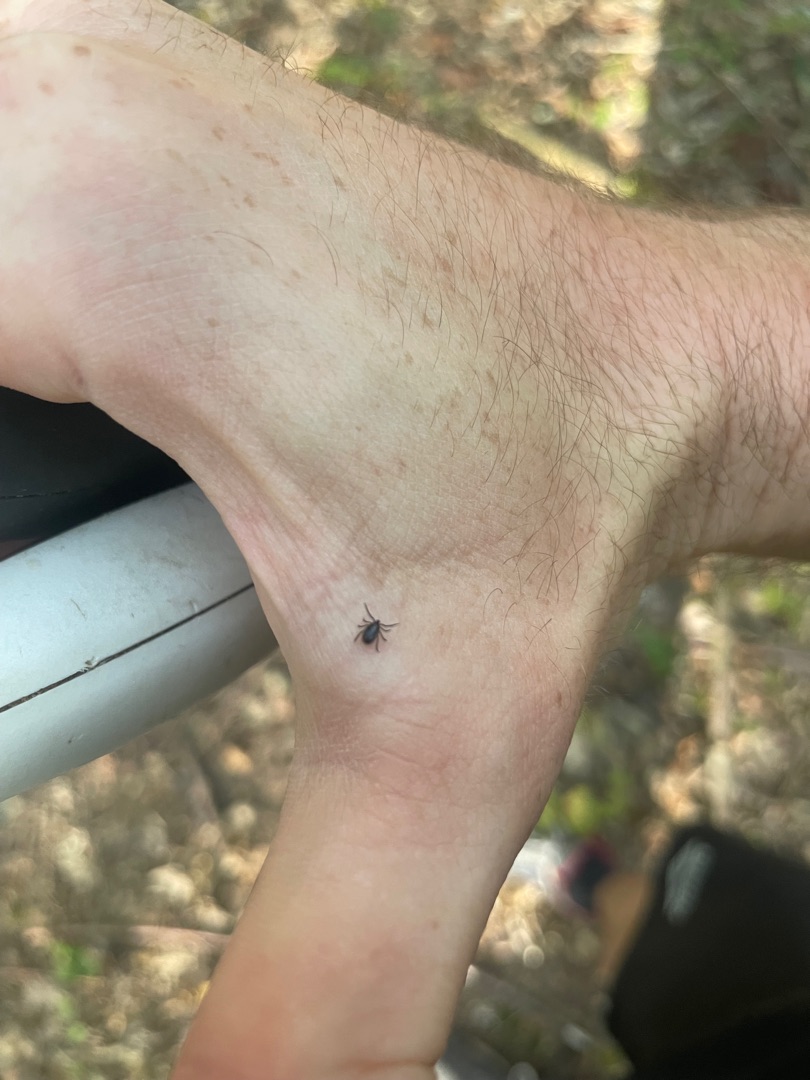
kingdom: Animalia
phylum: Arthropoda
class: Arachnida
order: Ixodida
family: Ixodidae
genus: Ixodes
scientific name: Ixodes ricinus
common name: Skovflåt
